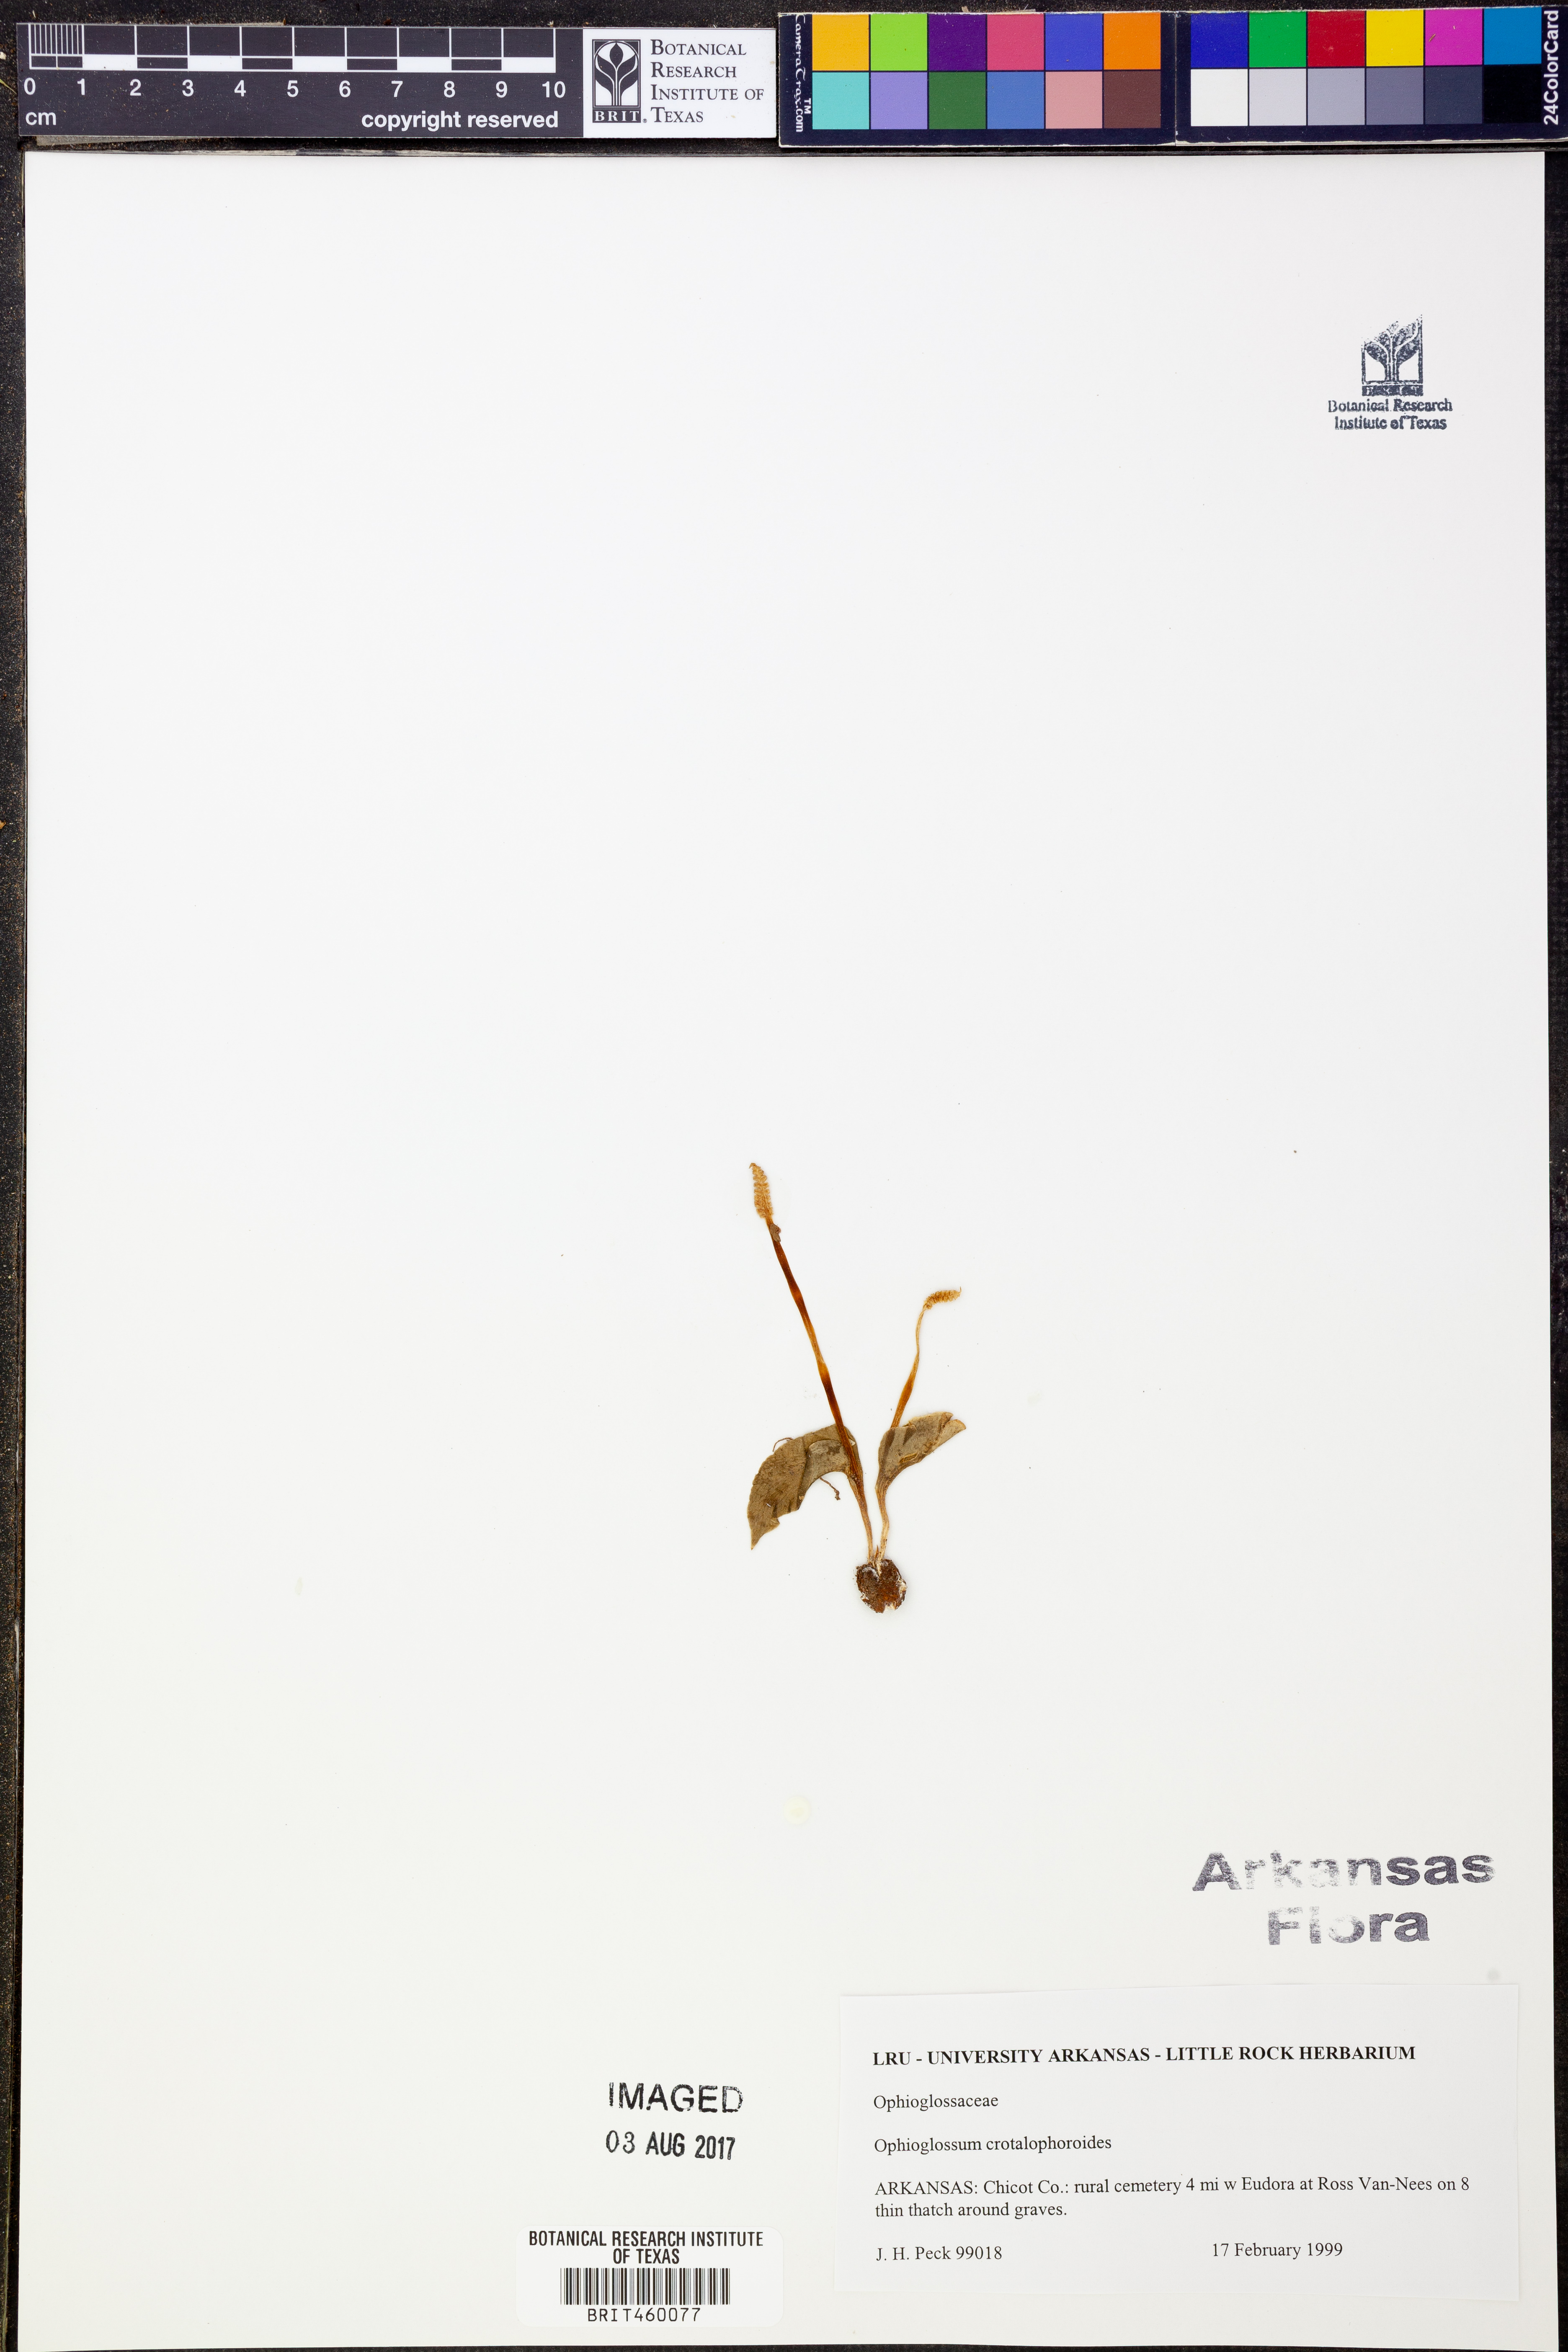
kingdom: Plantae
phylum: Tracheophyta
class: Polypodiopsida
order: Ophioglossales
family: Ophioglossaceae
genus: Ophioglossum
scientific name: Ophioglossum crotalophoroides
